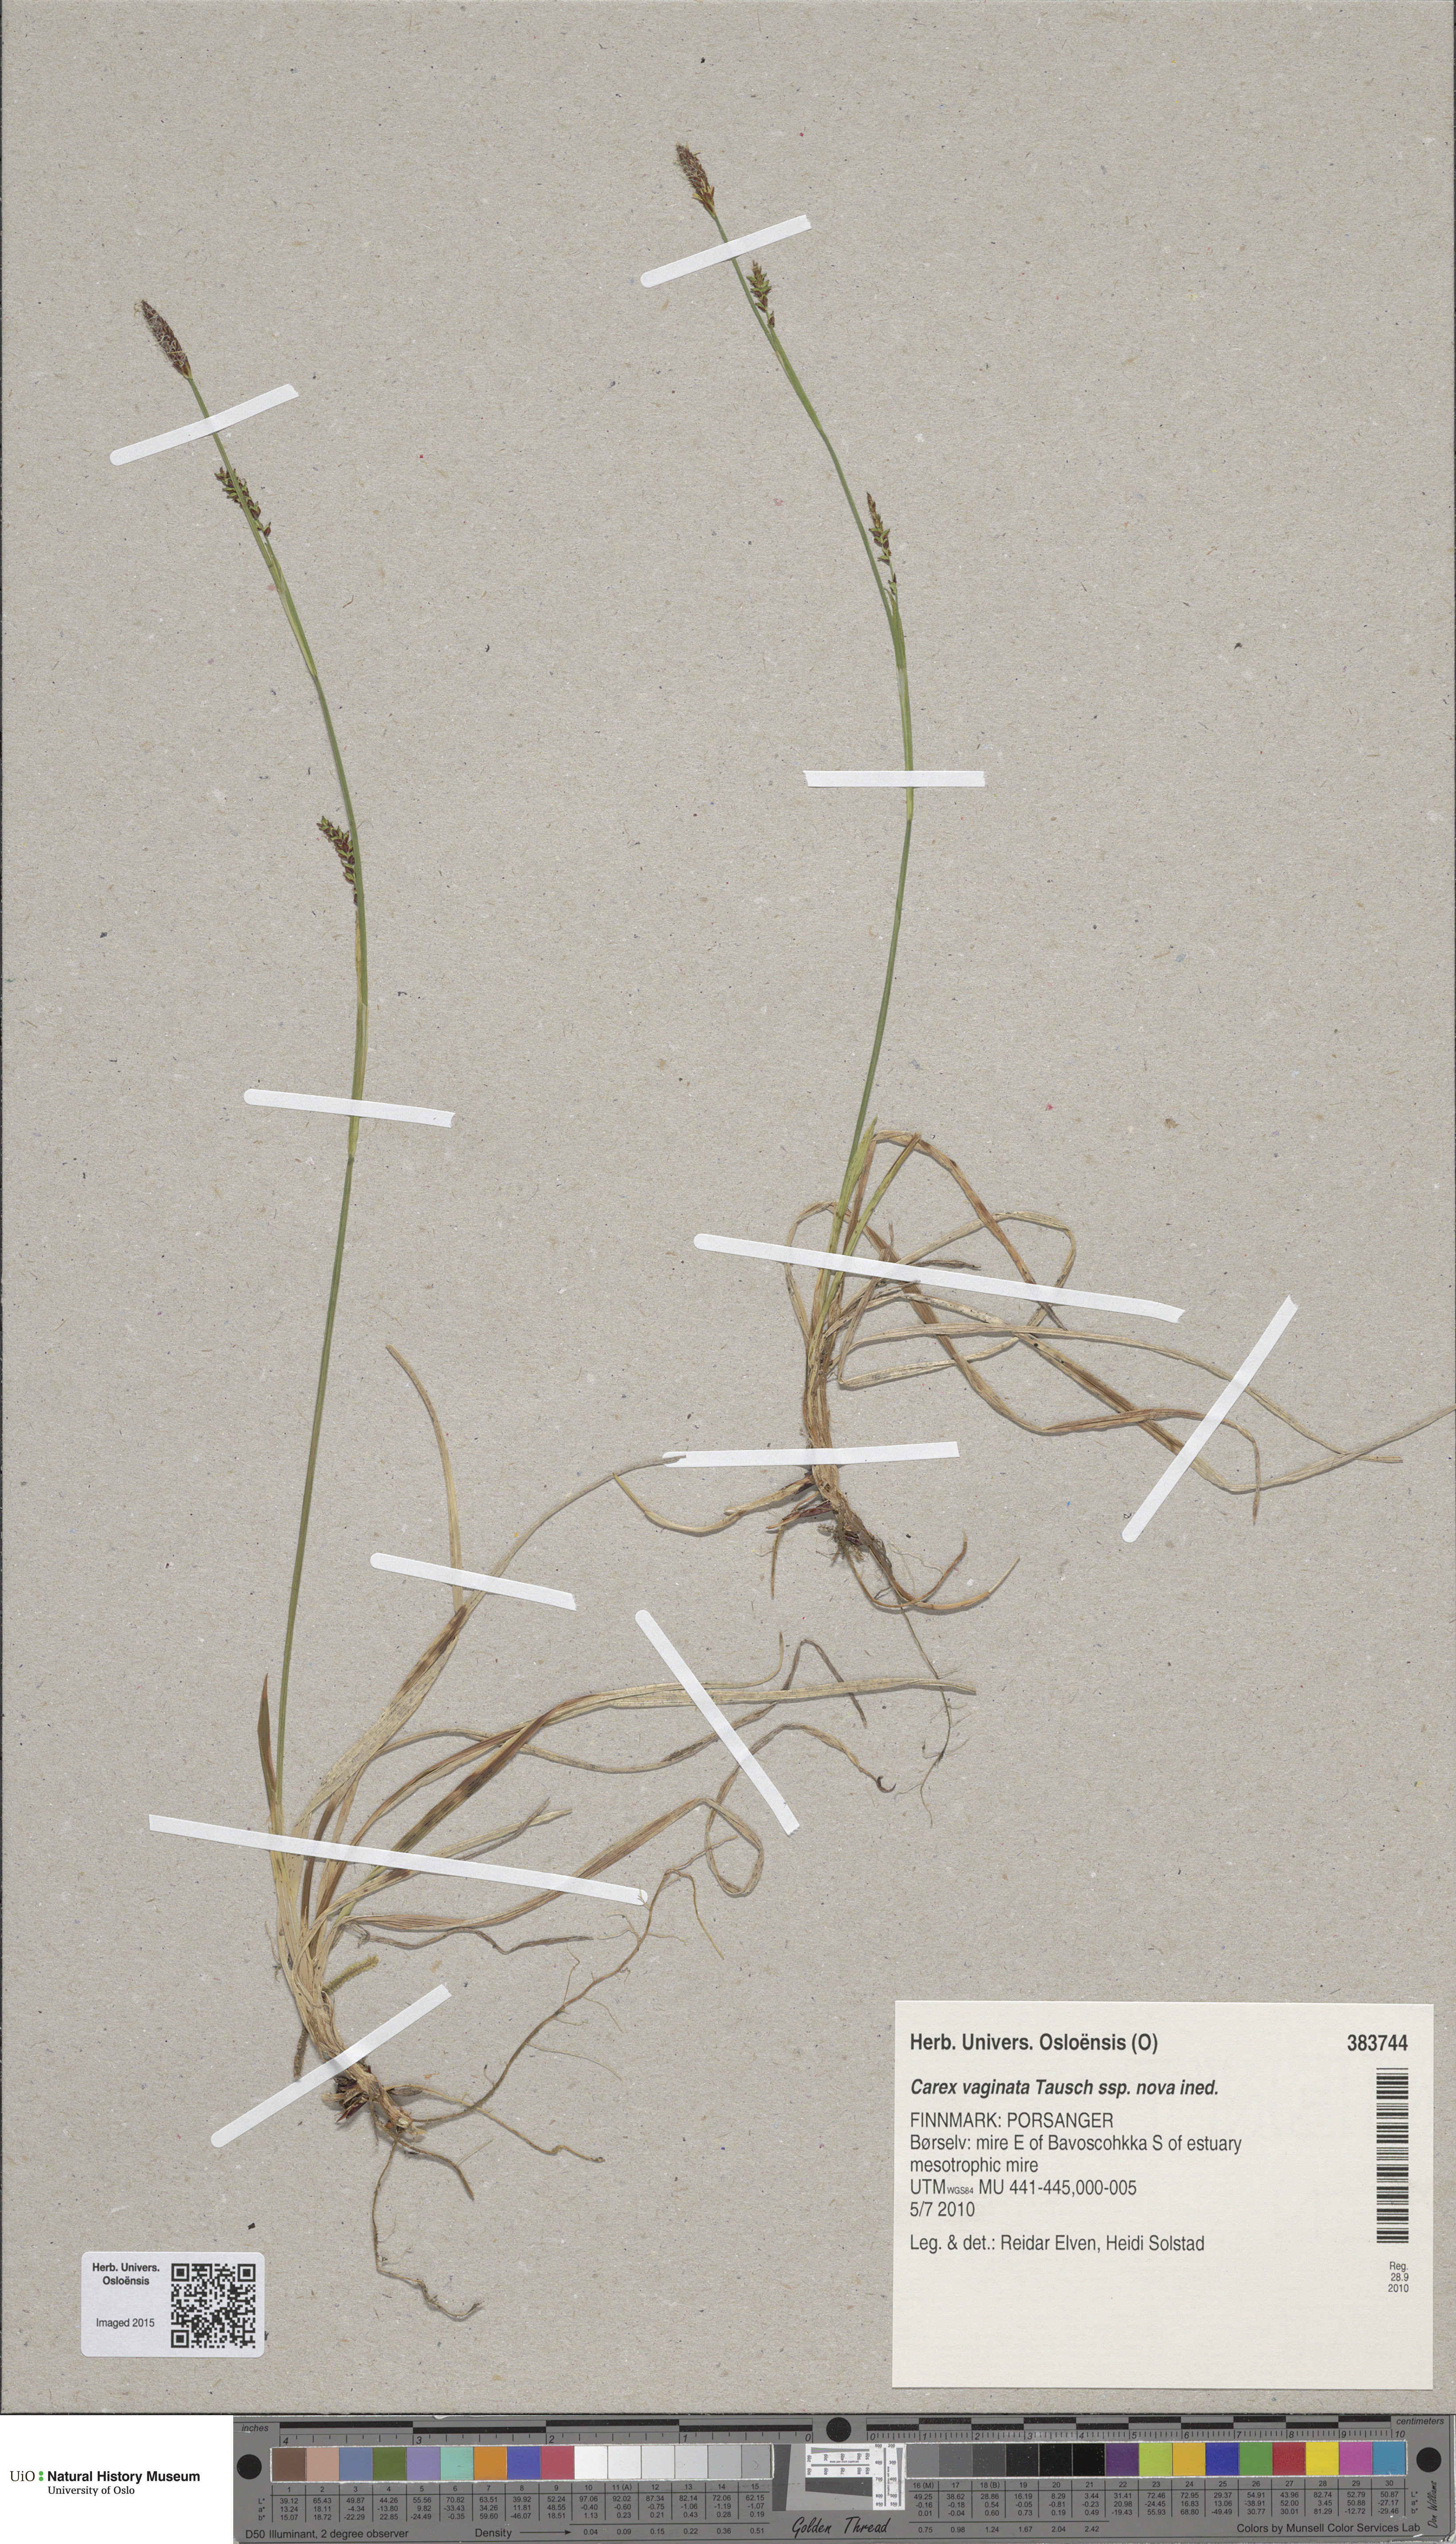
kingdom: Plantae
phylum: Tracheophyta
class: Liliopsida
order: Poales
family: Cyperaceae
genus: Carex
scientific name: Carex algida
